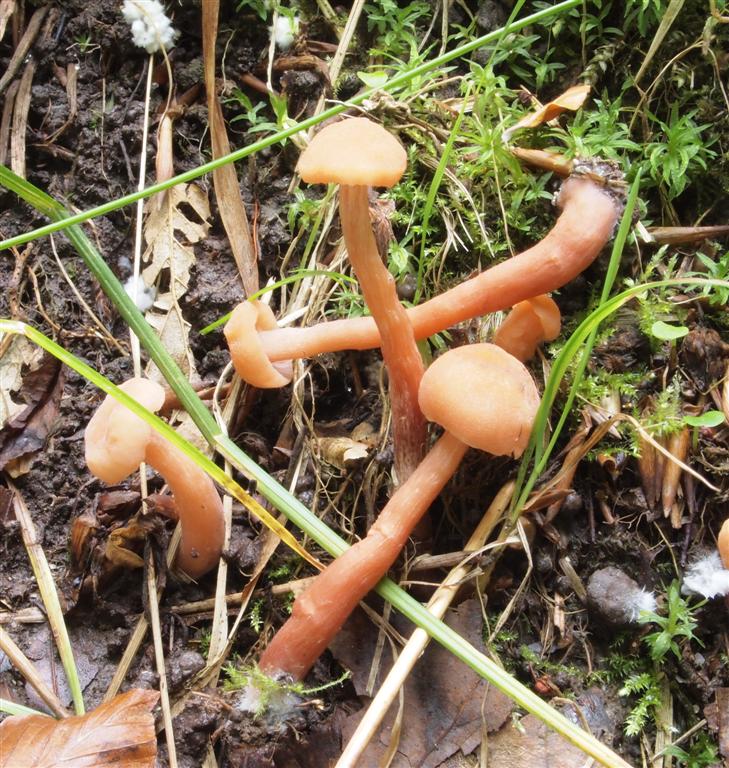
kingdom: Fungi
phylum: Basidiomycota
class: Agaricomycetes
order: Agaricales
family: Hydnangiaceae
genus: Laccaria
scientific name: Laccaria proxima
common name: stor ametysthat
